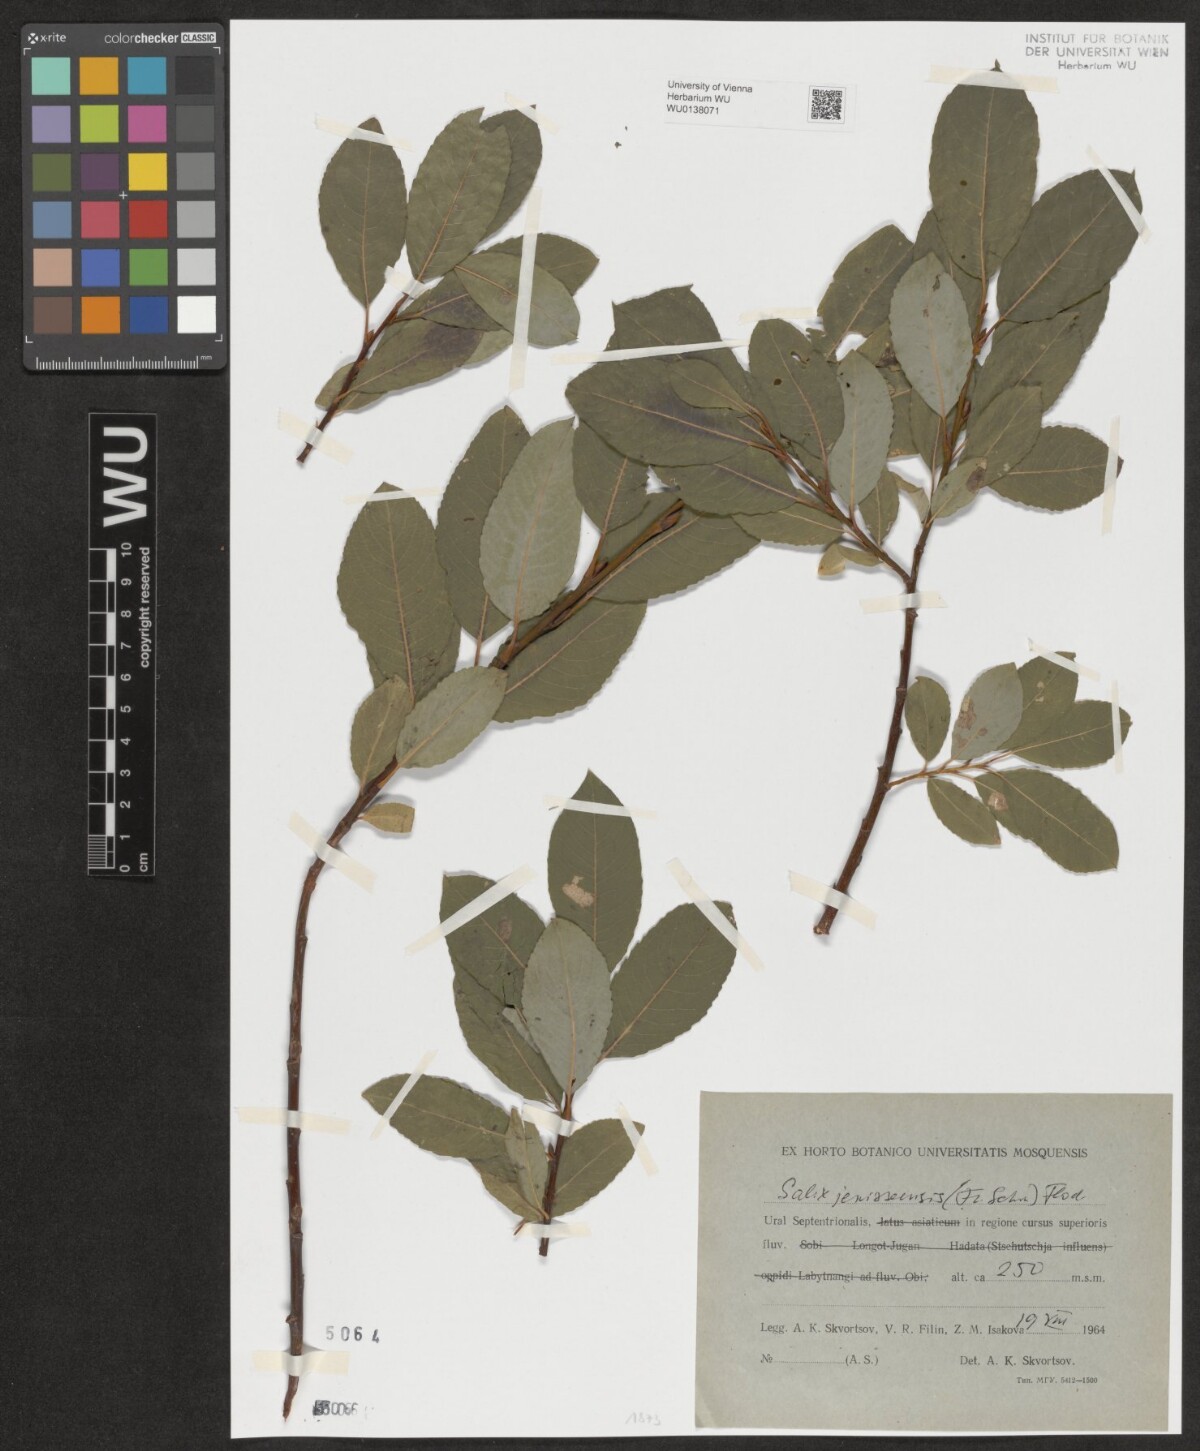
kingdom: Plantae
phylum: Tracheophyta
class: Magnoliopsida
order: Malpighiales
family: Salicaceae
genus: Salix
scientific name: Salix jenisseensis
